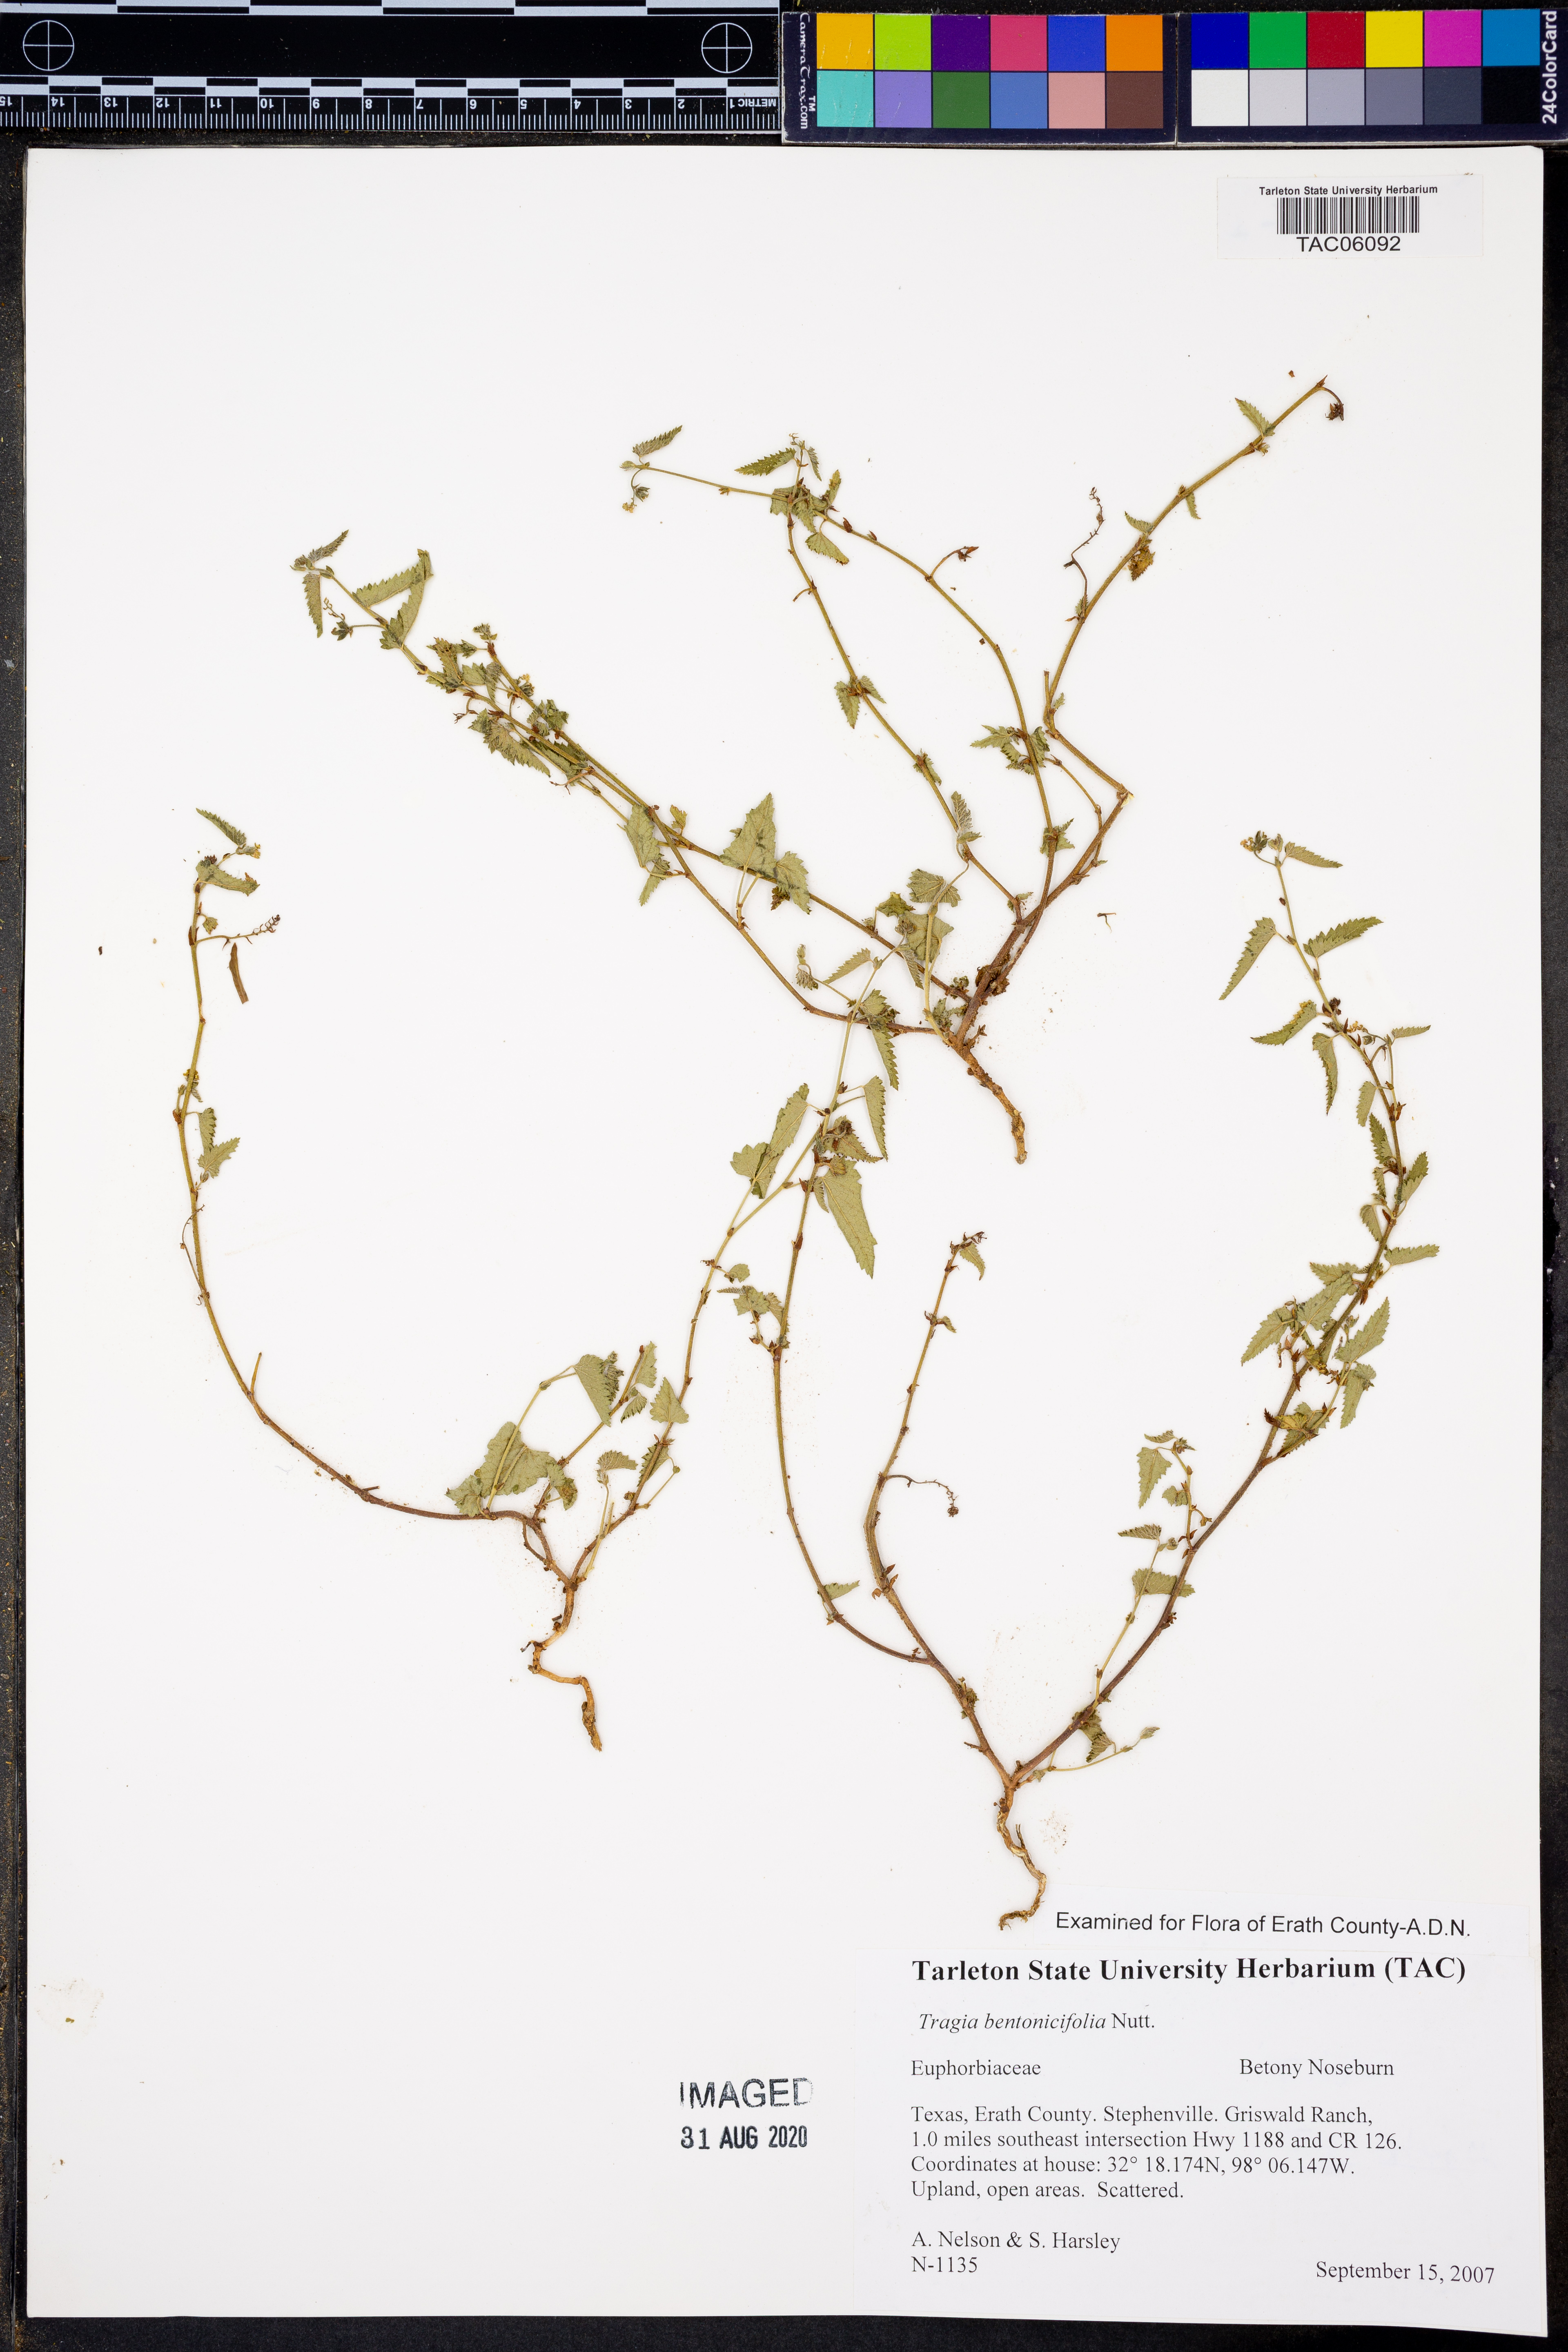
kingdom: Plantae
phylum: Tracheophyta
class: Magnoliopsida
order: Malpighiales
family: Euphorbiaceae
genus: Tragia
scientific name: Tragia betonicifolia
